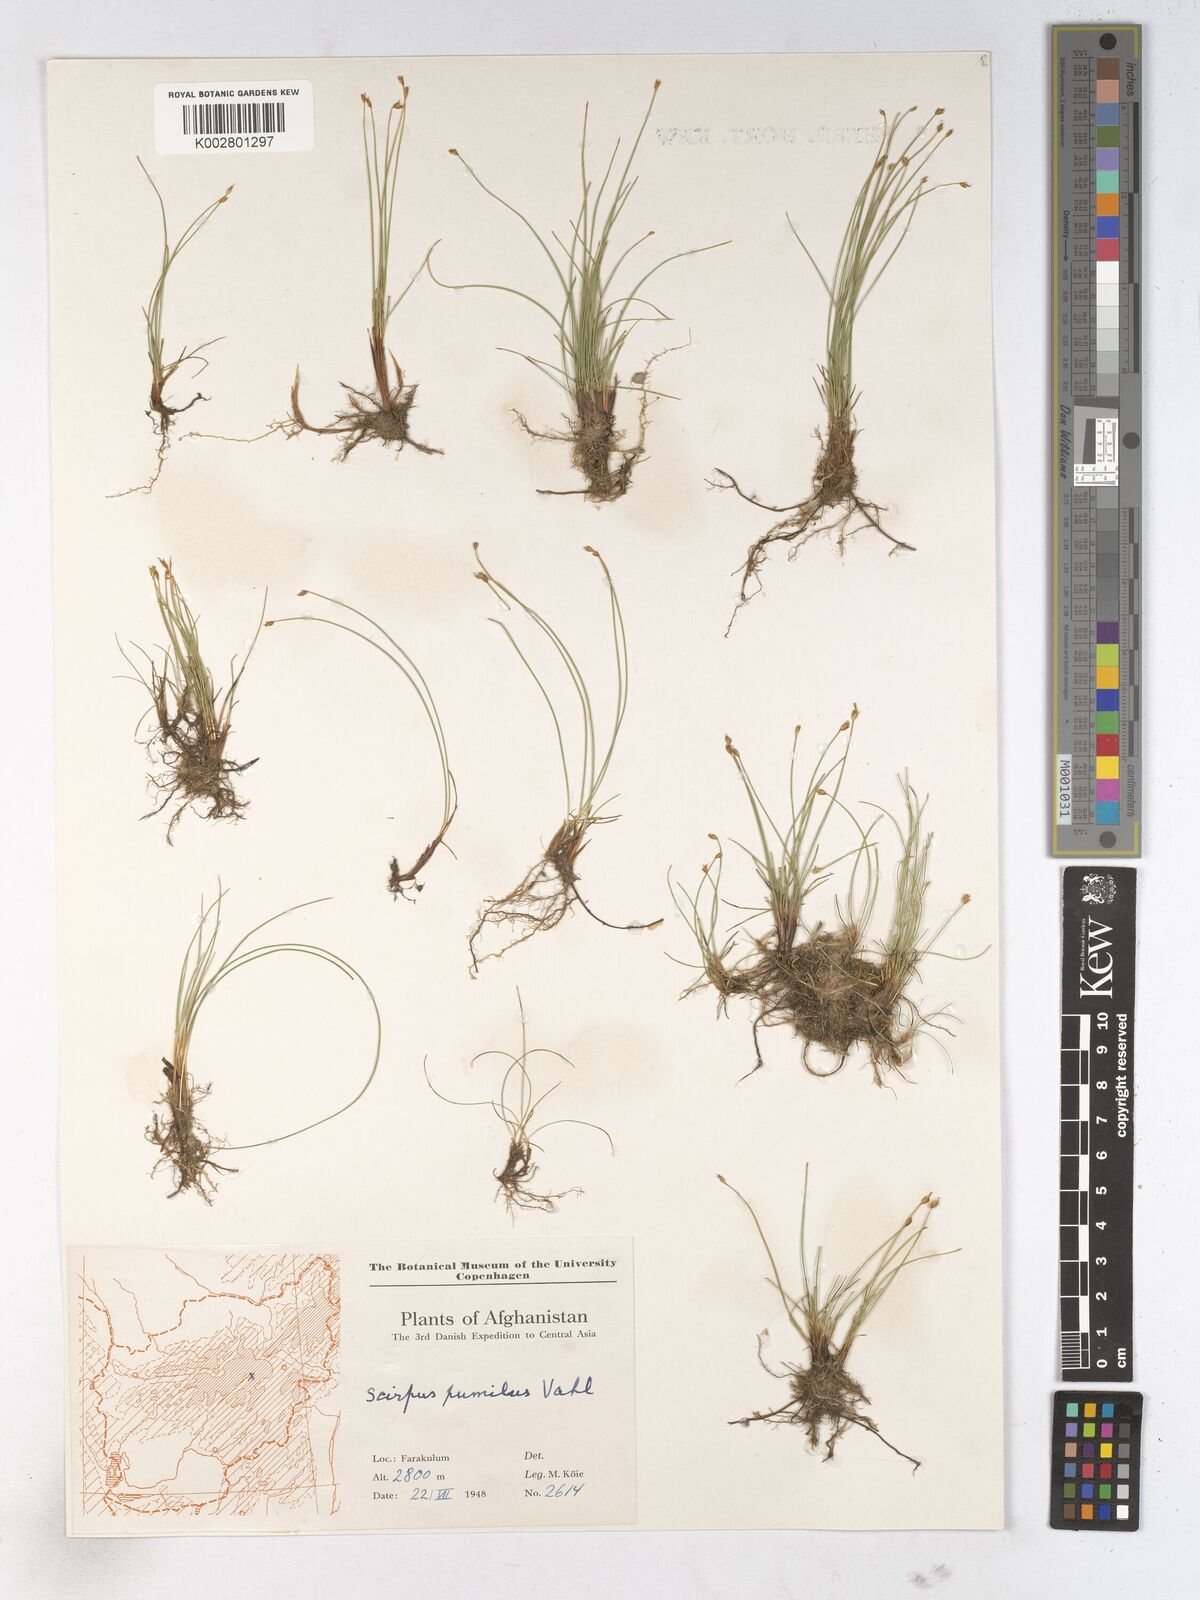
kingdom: Plantae
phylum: Tracheophyta
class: Liliopsida
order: Poales
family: Cyperaceae
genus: Trichophorum
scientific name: Trichophorum pumilum
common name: Rolland's bulrush
